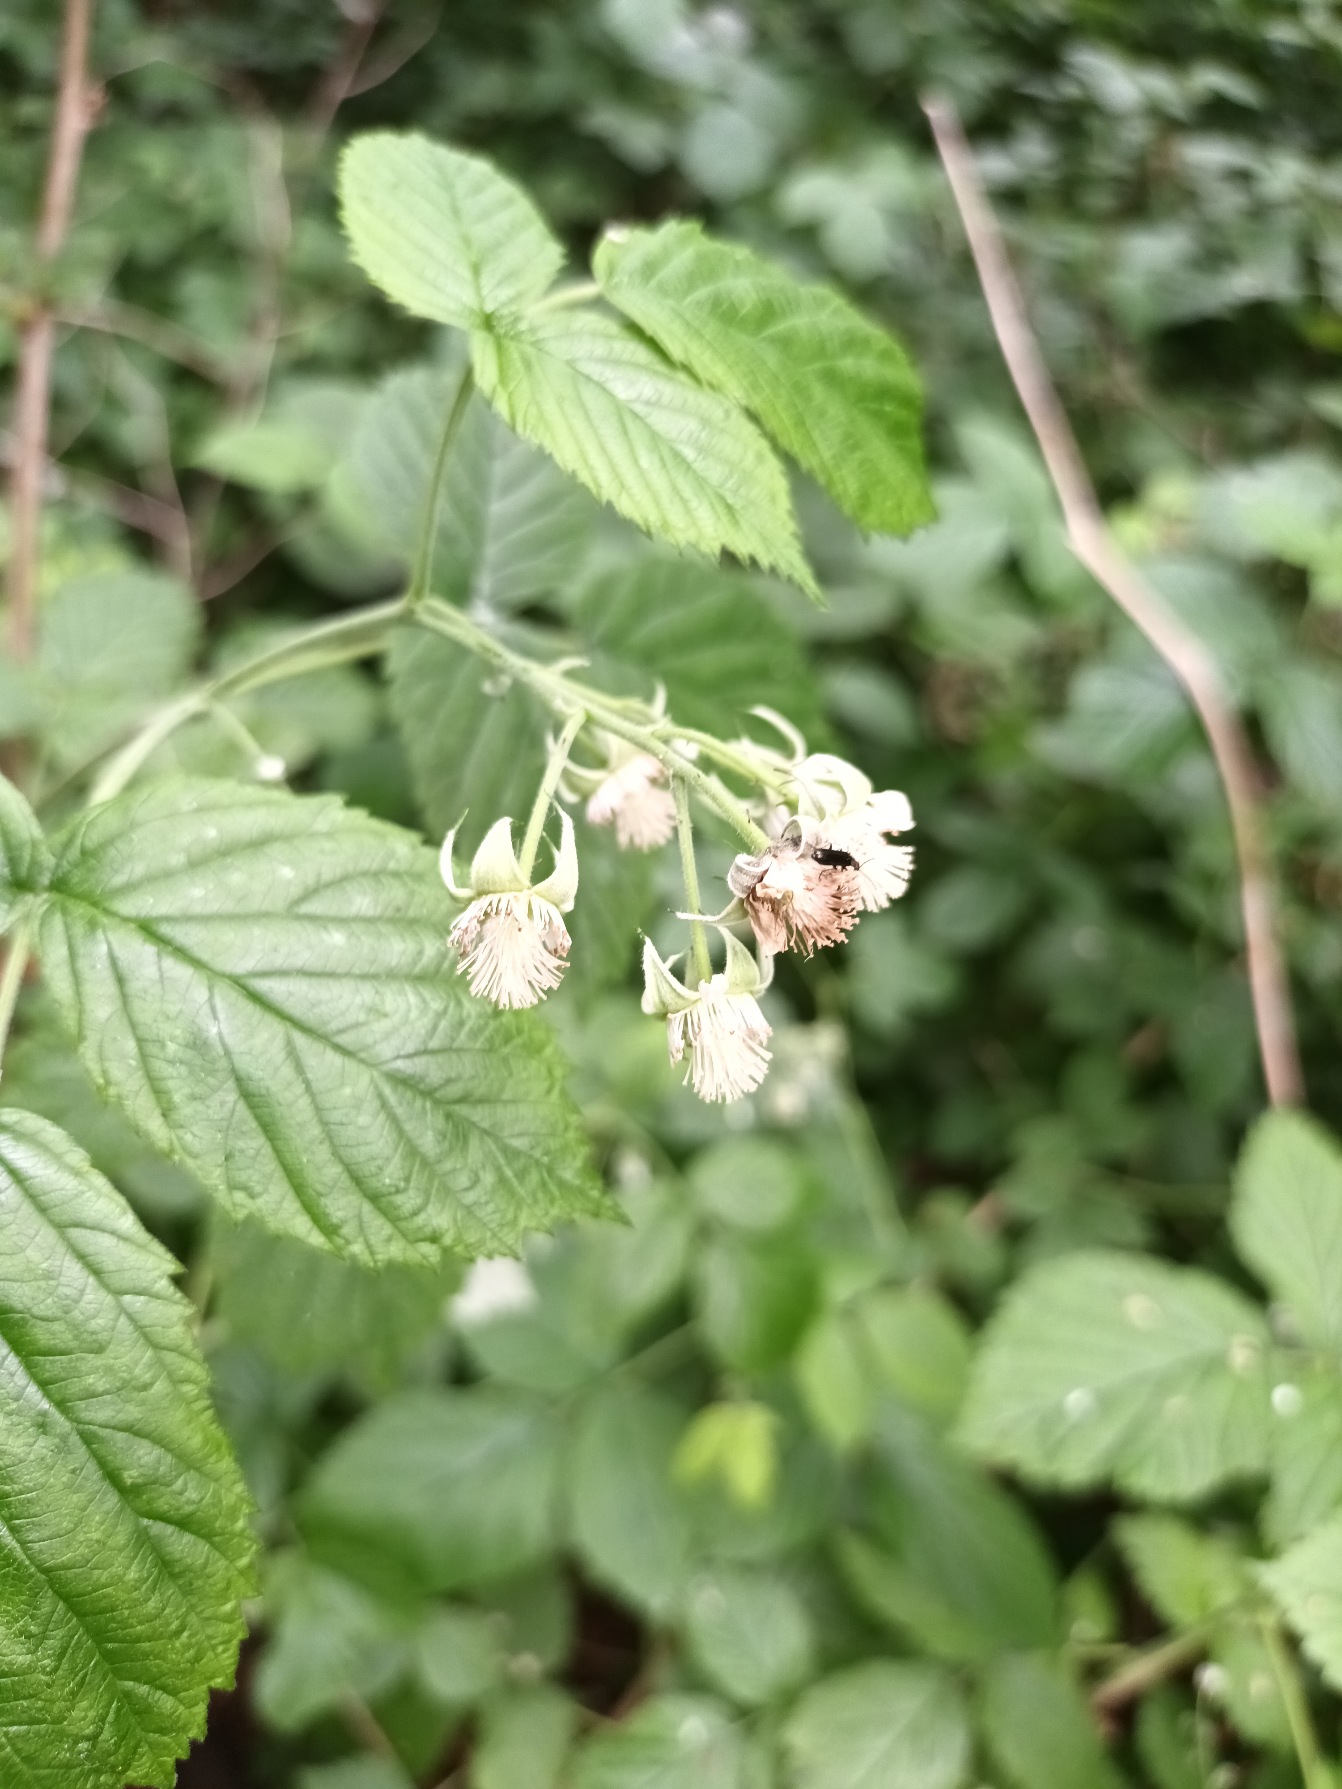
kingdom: Plantae
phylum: Tracheophyta
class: Magnoliopsida
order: Rosales
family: Rosaceae
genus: Rubus
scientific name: Rubus idaeus
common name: Hindbær
